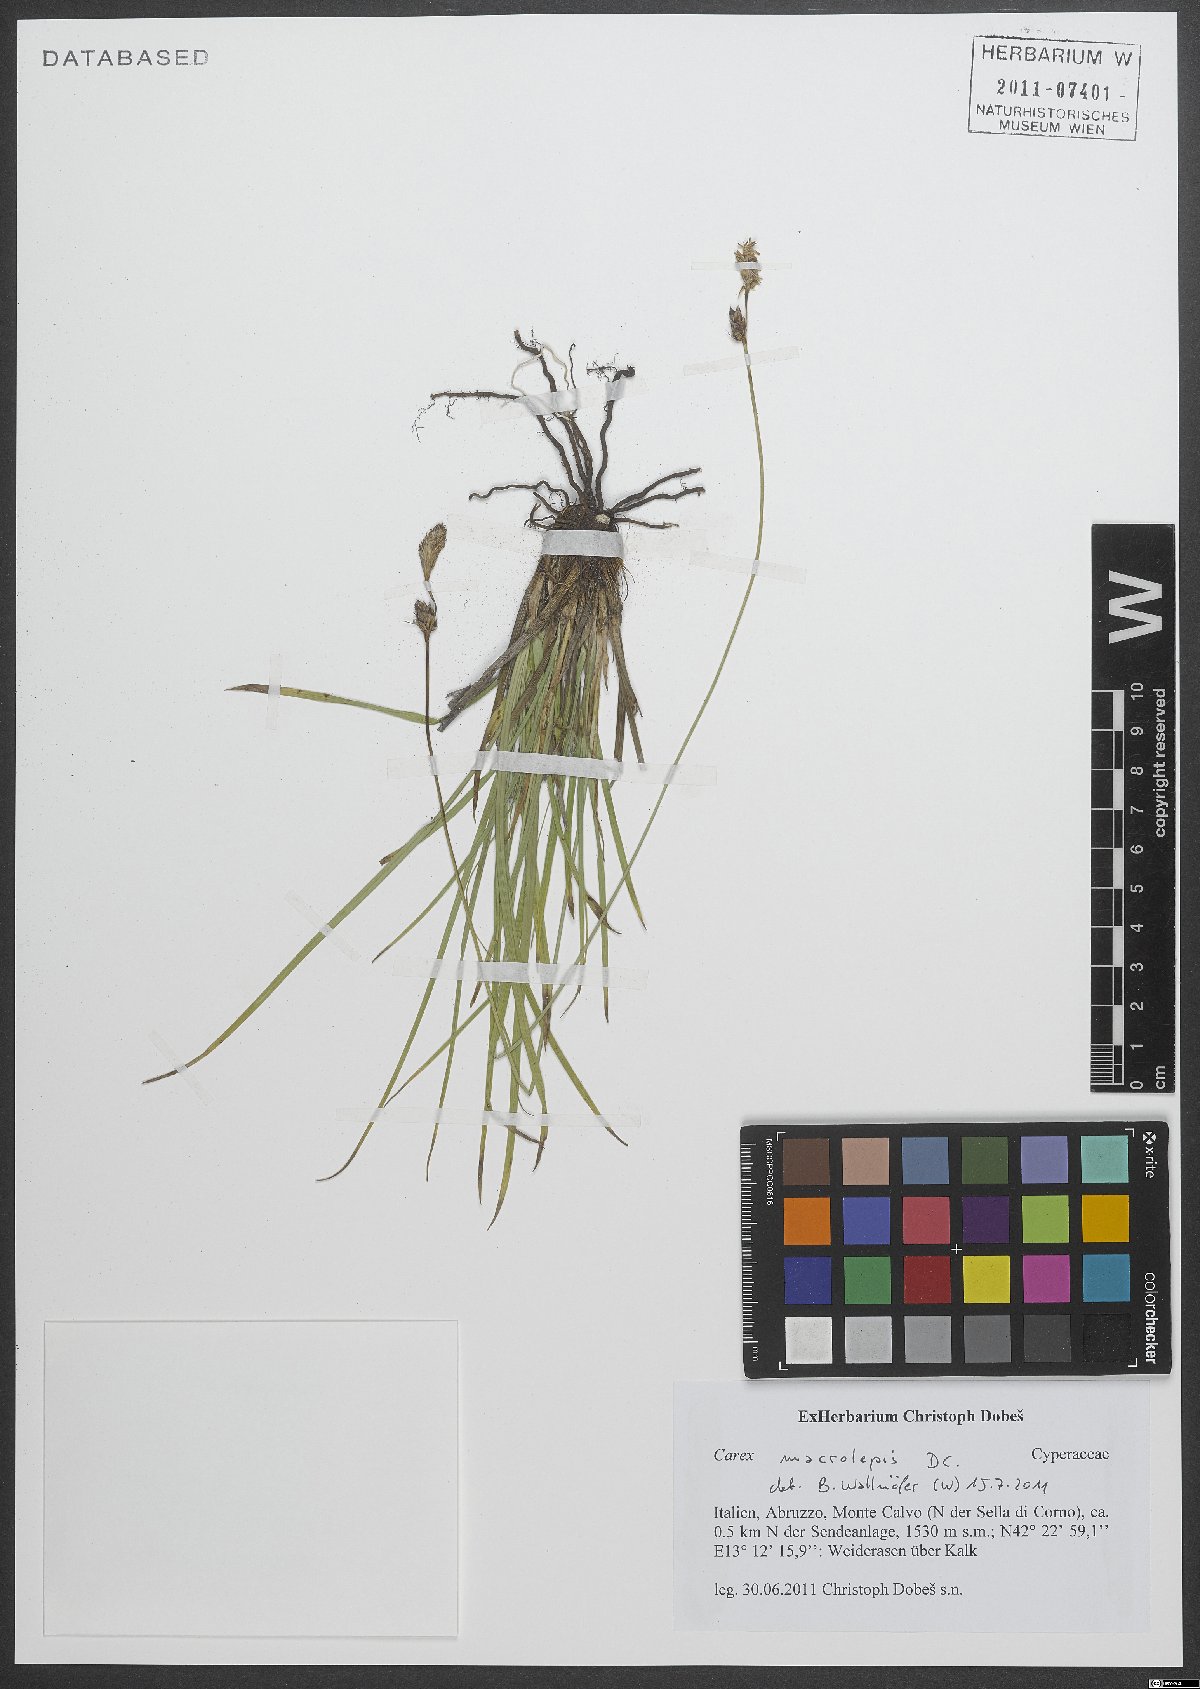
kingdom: Plantae
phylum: Tracheophyta
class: Liliopsida
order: Poales
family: Cyperaceae
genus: Carex
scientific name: Carex macrolepis
